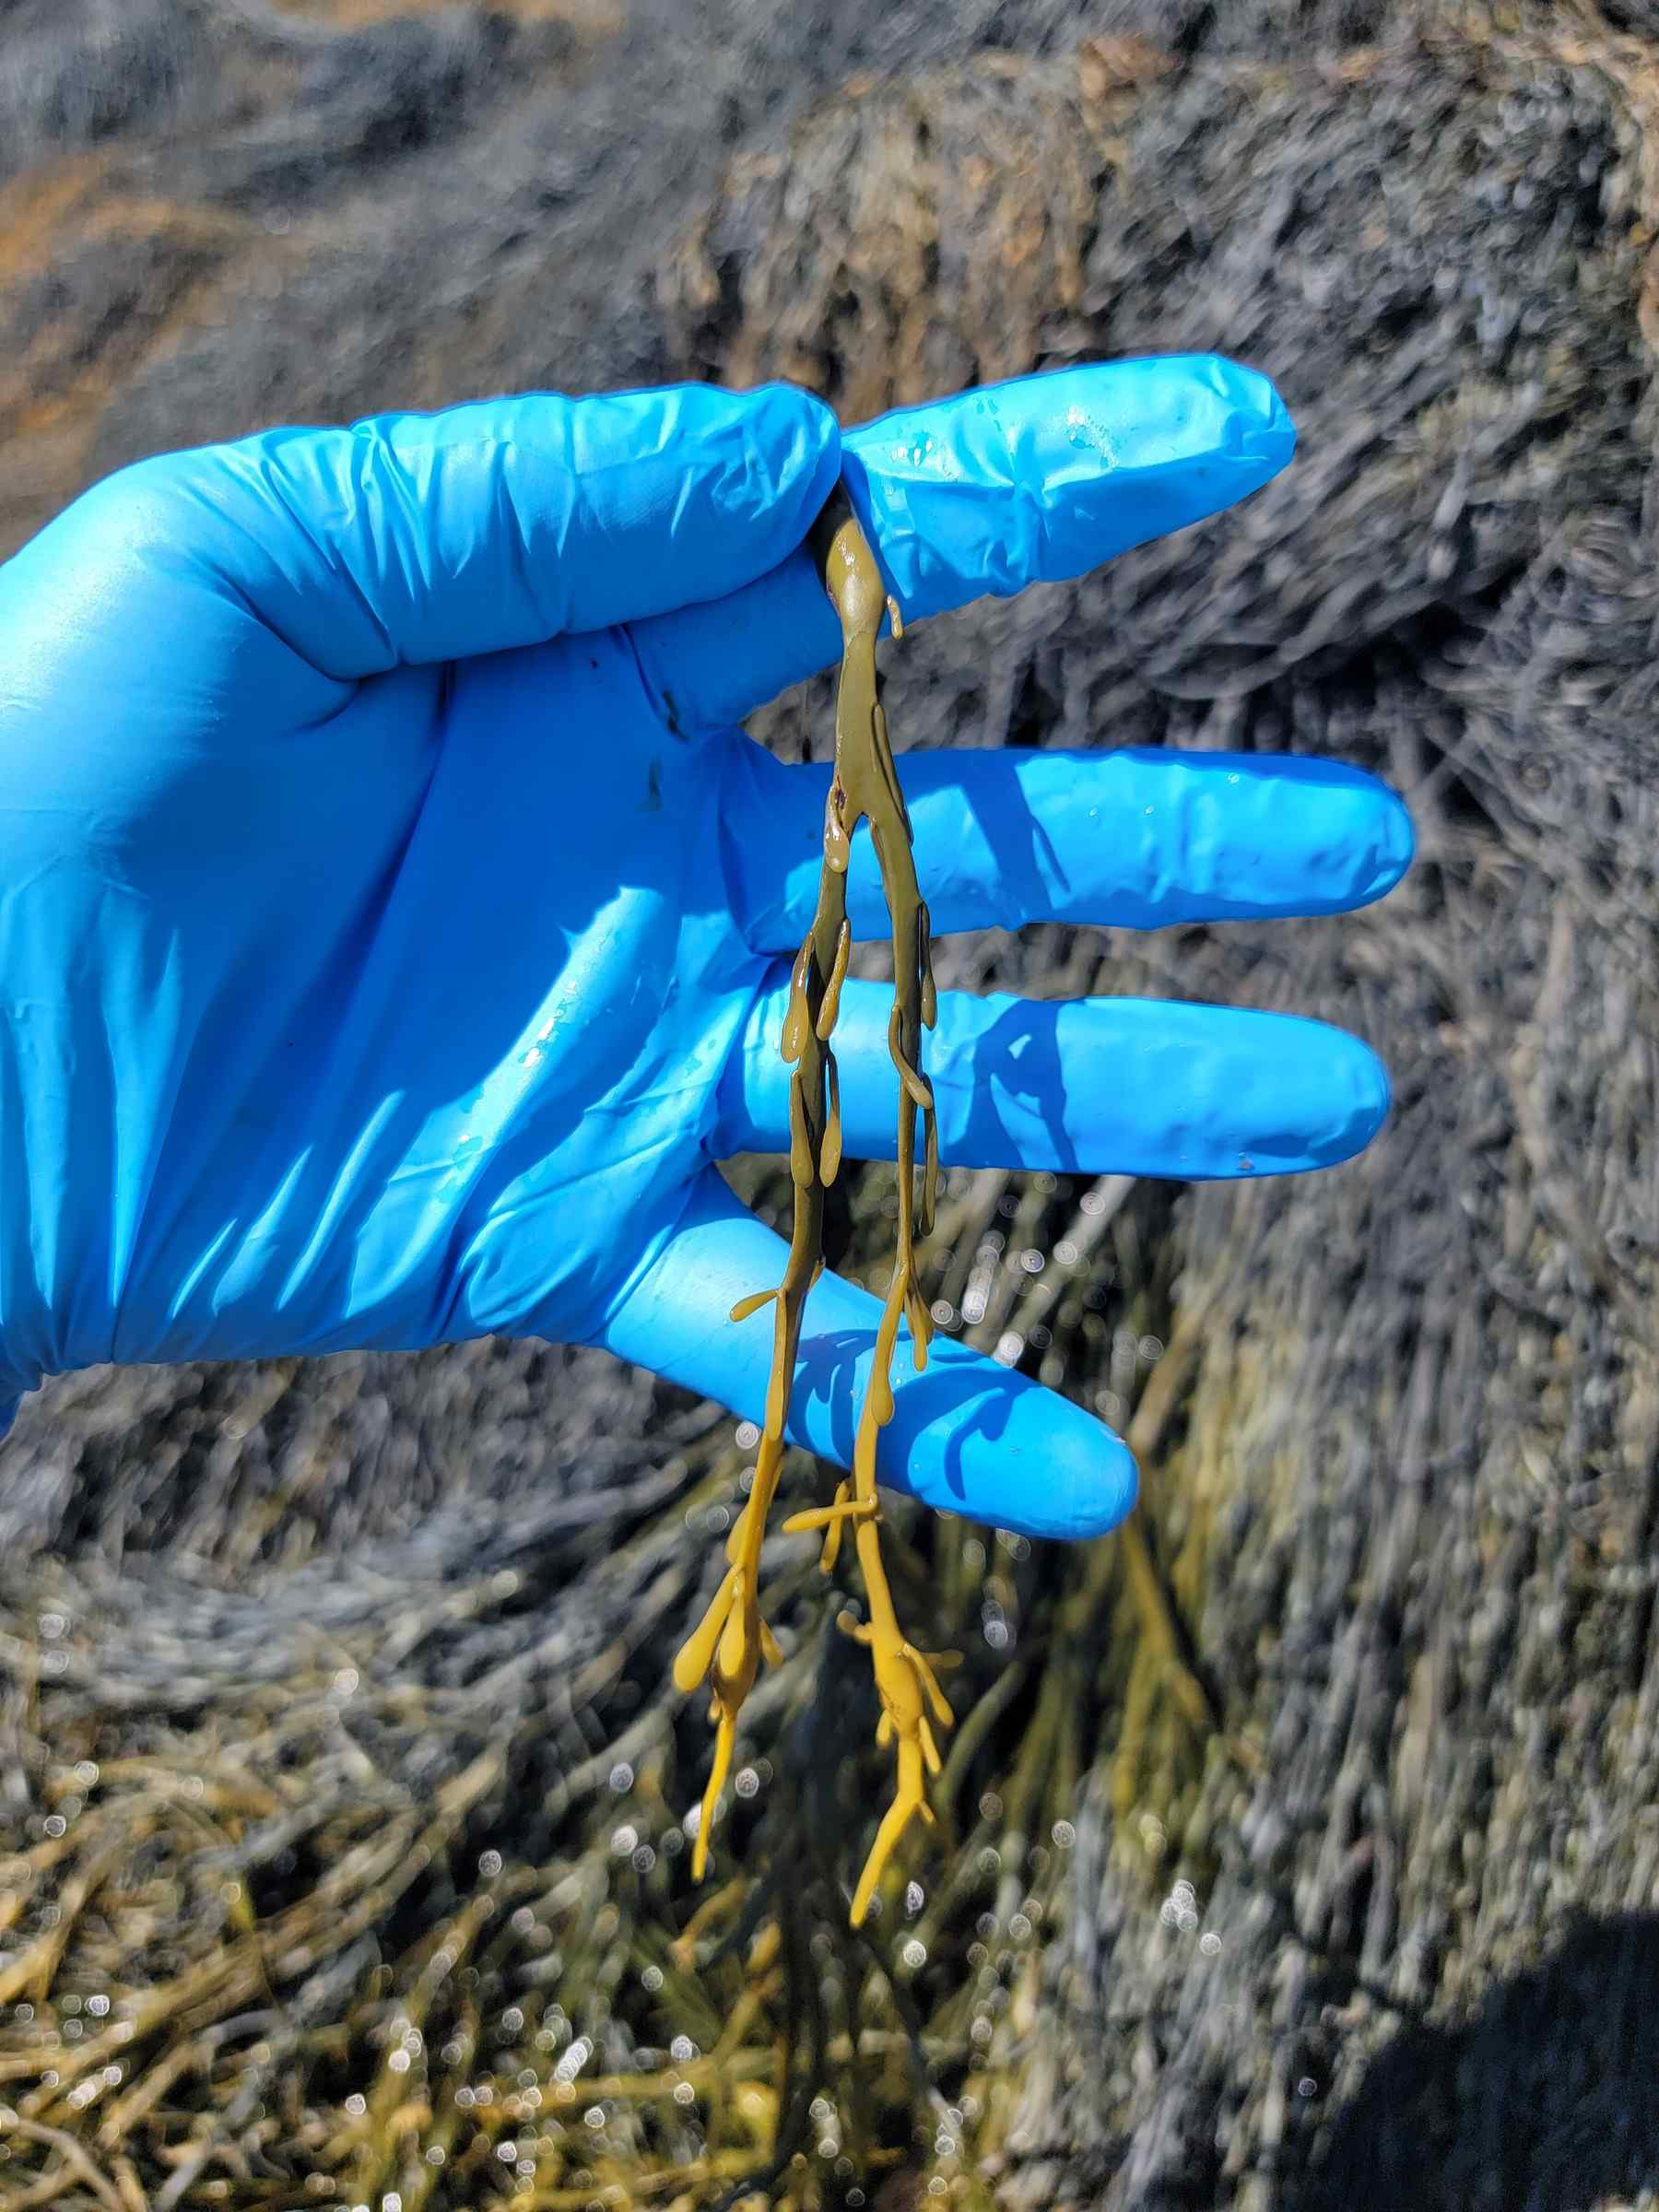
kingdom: Chromista
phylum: Ochrophyta
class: Phaeophyceae
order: Fucales
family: Fucaceae
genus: Ascophyllum
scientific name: Ascophyllum nodosum
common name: Rockweed
